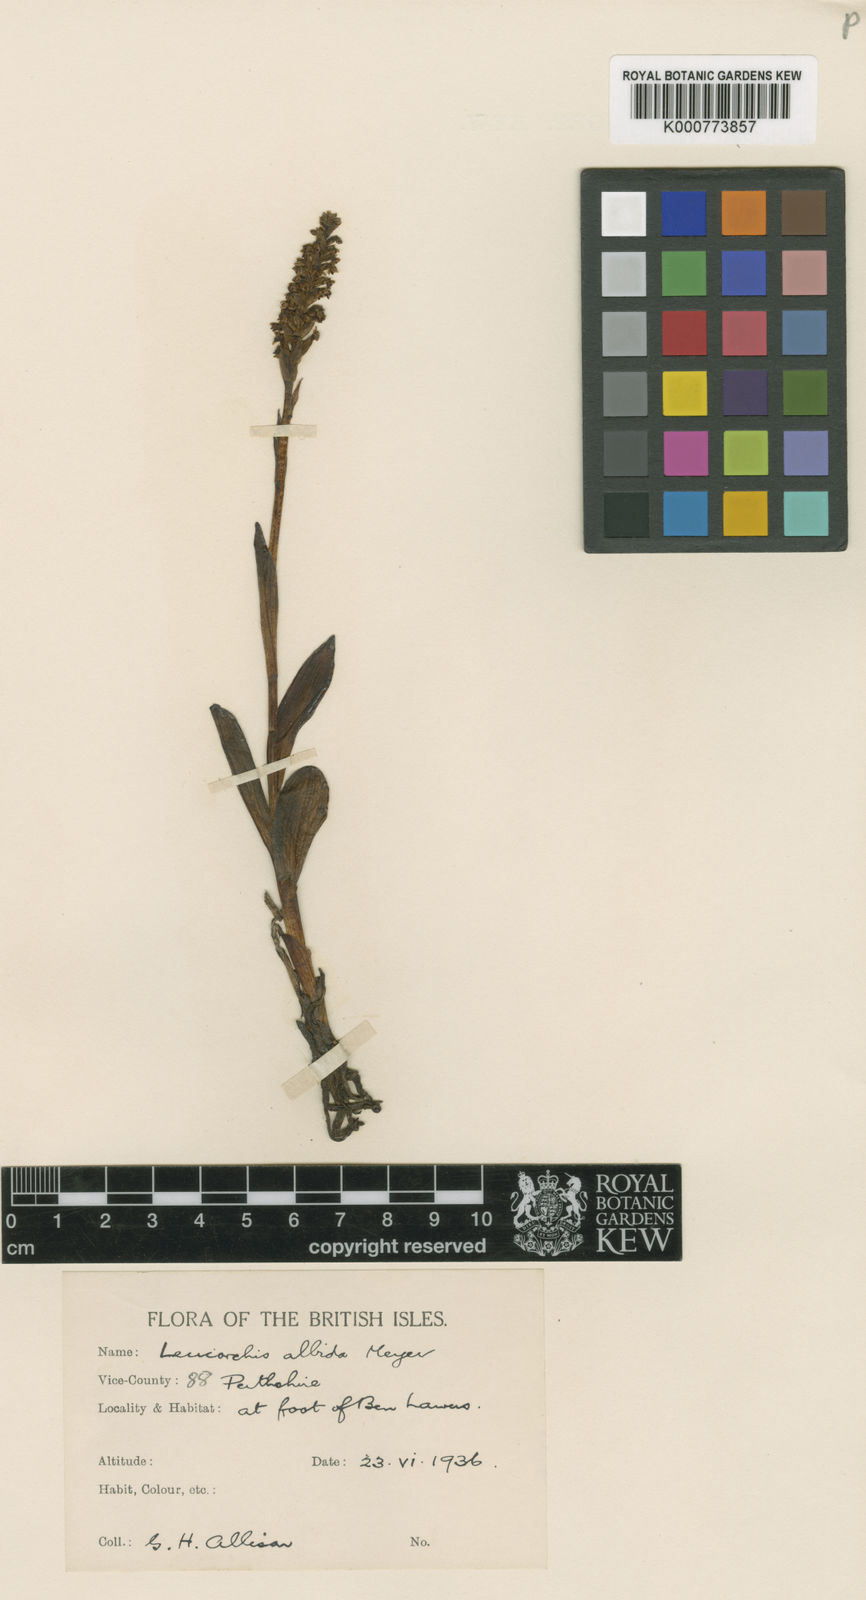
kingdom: Plantae
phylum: Tracheophyta
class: Liliopsida
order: Asparagales
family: Orchidaceae
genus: Pseudorchis
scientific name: Pseudorchis
